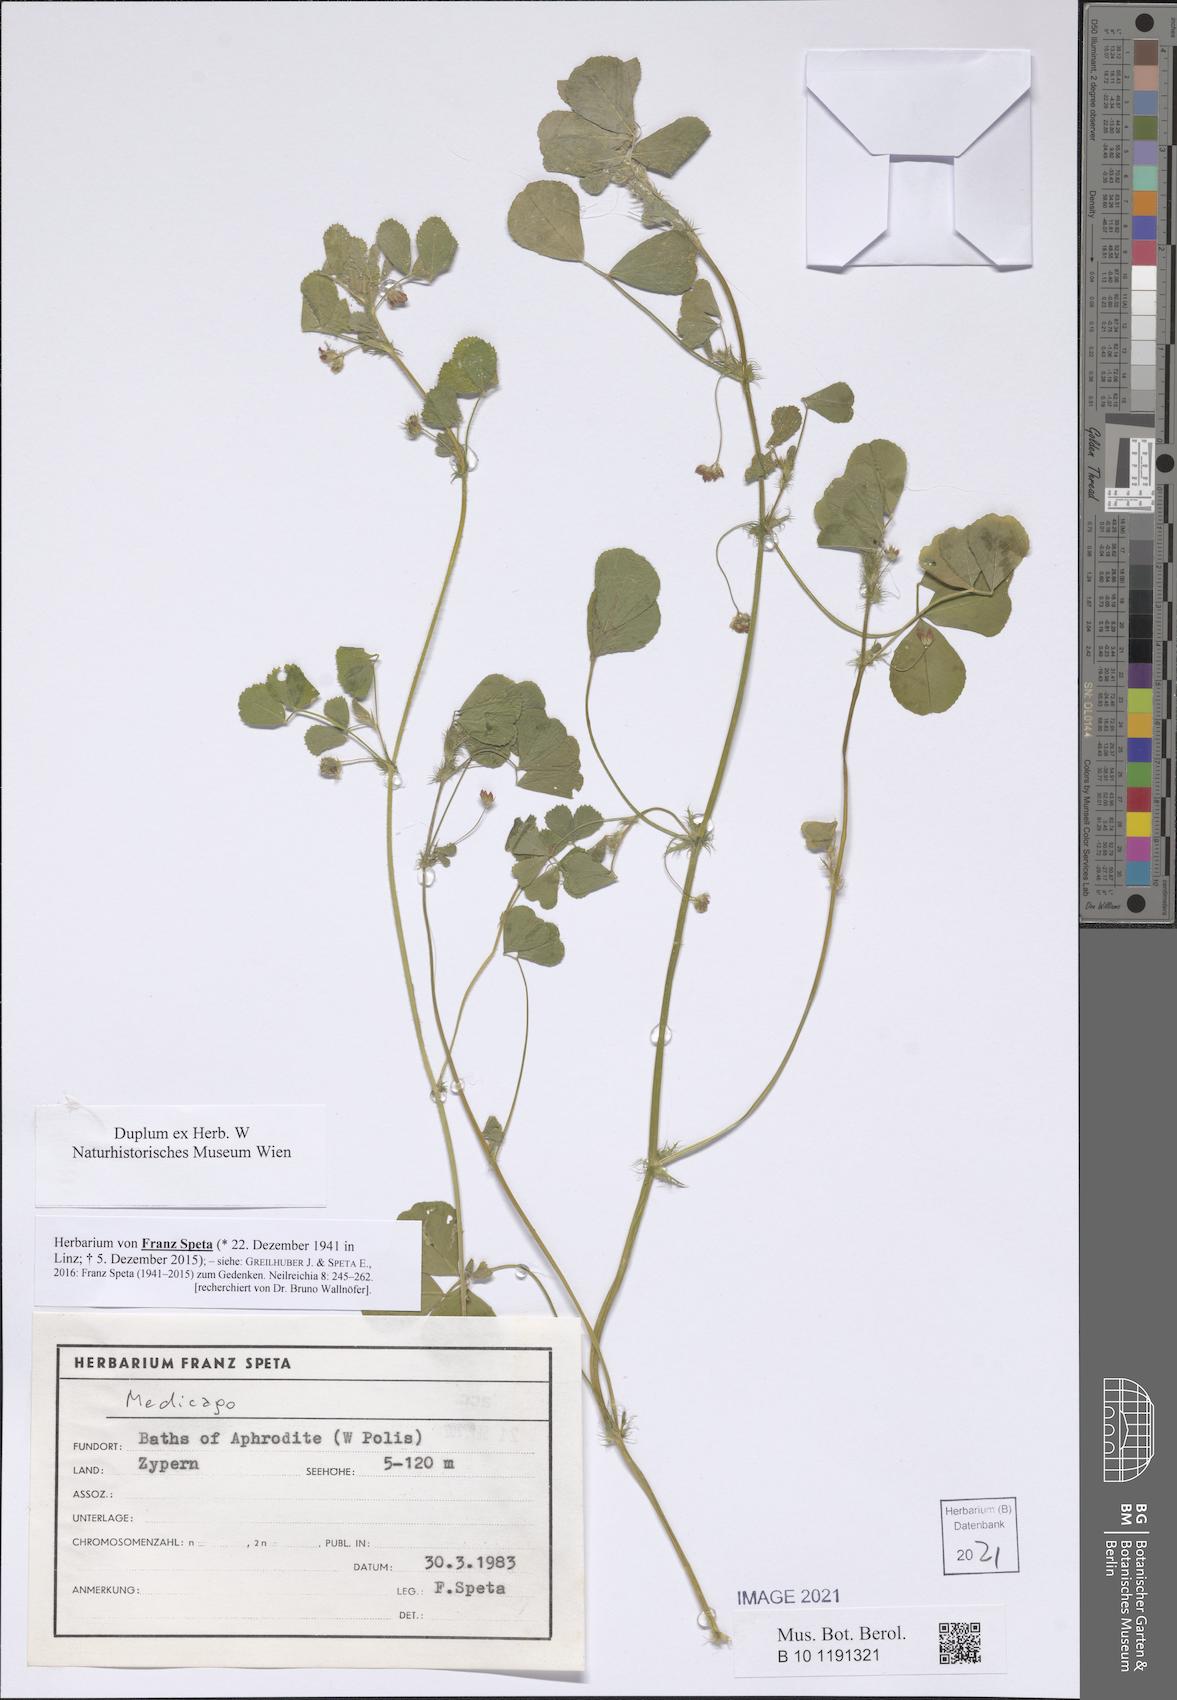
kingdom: Plantae
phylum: Tracheophyta
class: Magnoliopsida
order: Fabales
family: Fabaceae
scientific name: Fabaceae
